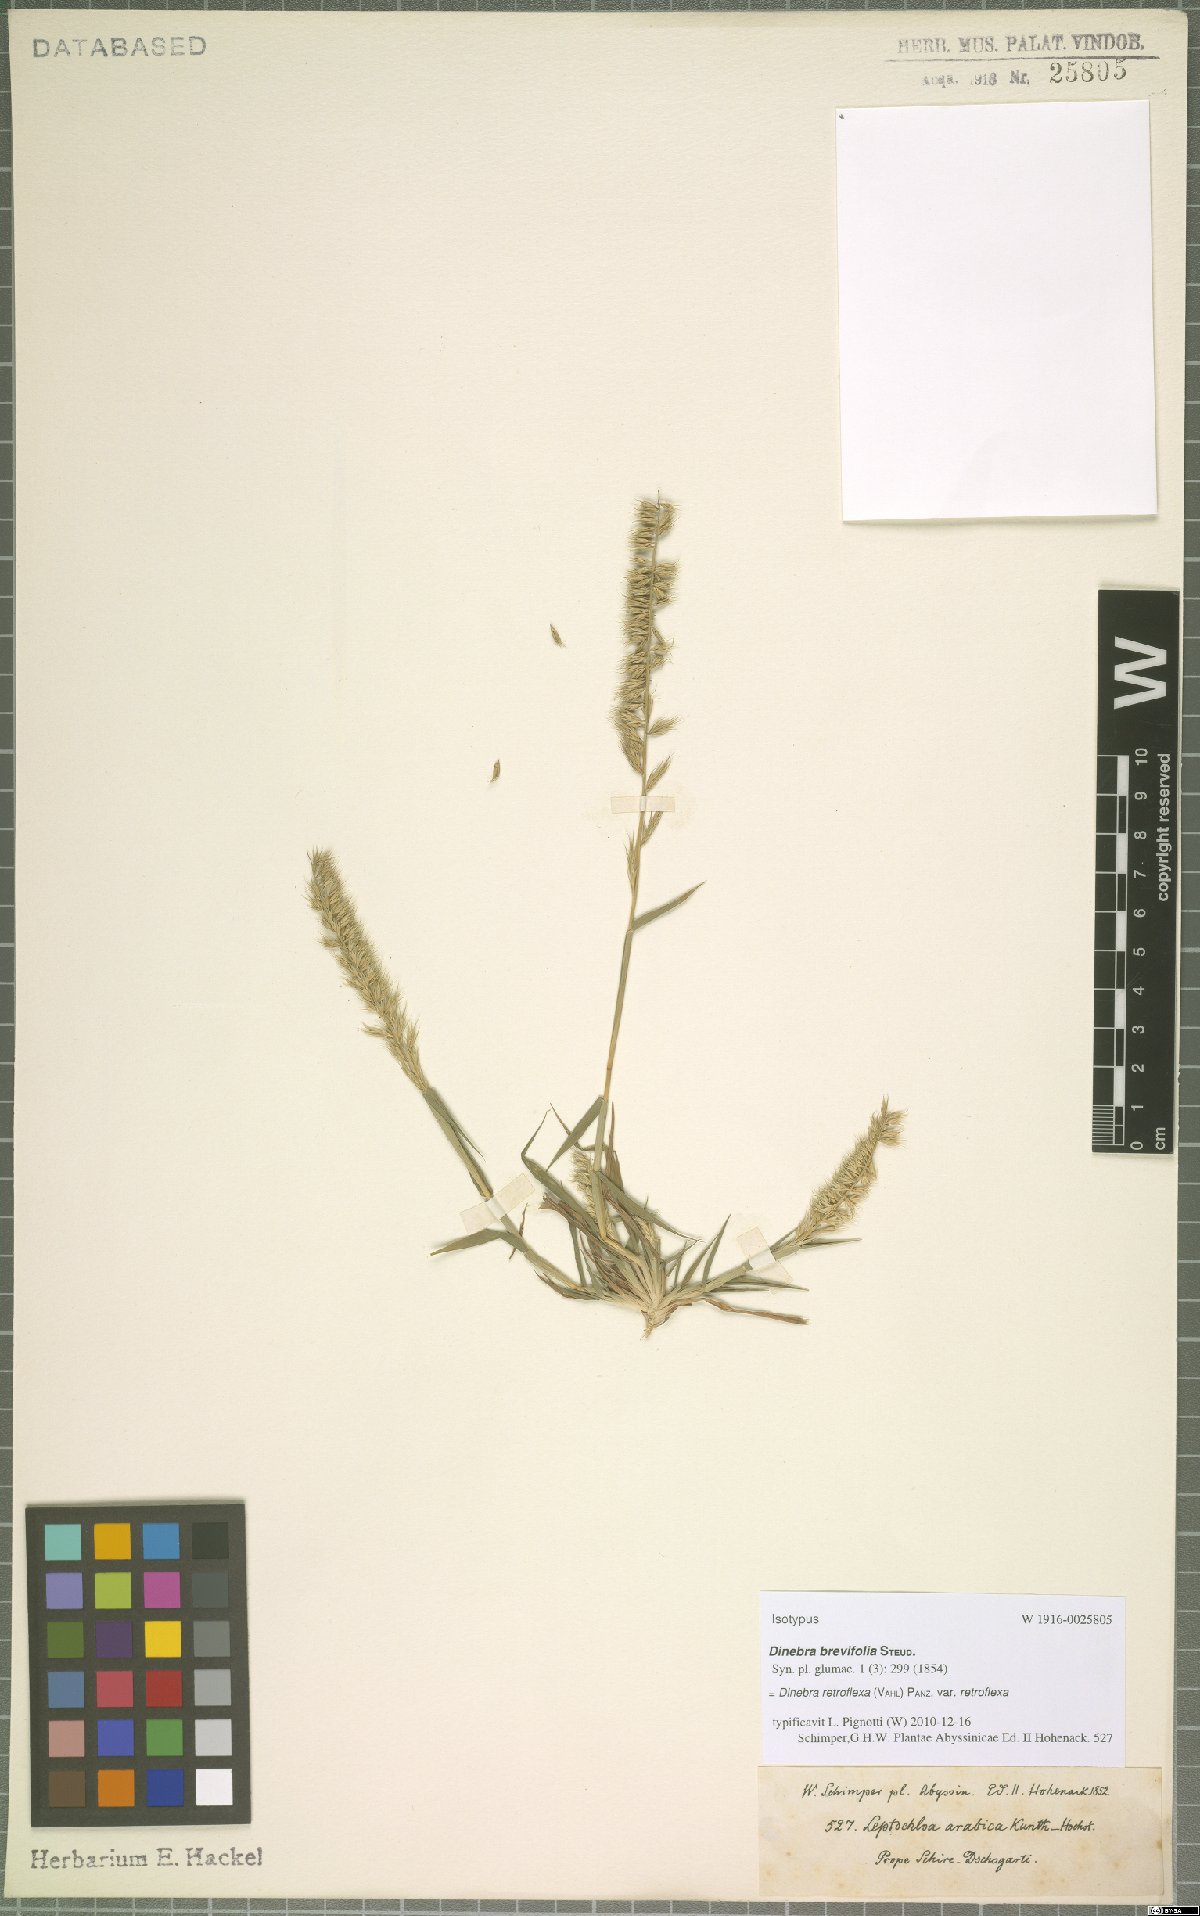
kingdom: Plantae
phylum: Tracheophyta
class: Liliopsida
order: Poales
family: Poaceae
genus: Dinebra
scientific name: Dinebra retroflexa
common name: Viper grass
